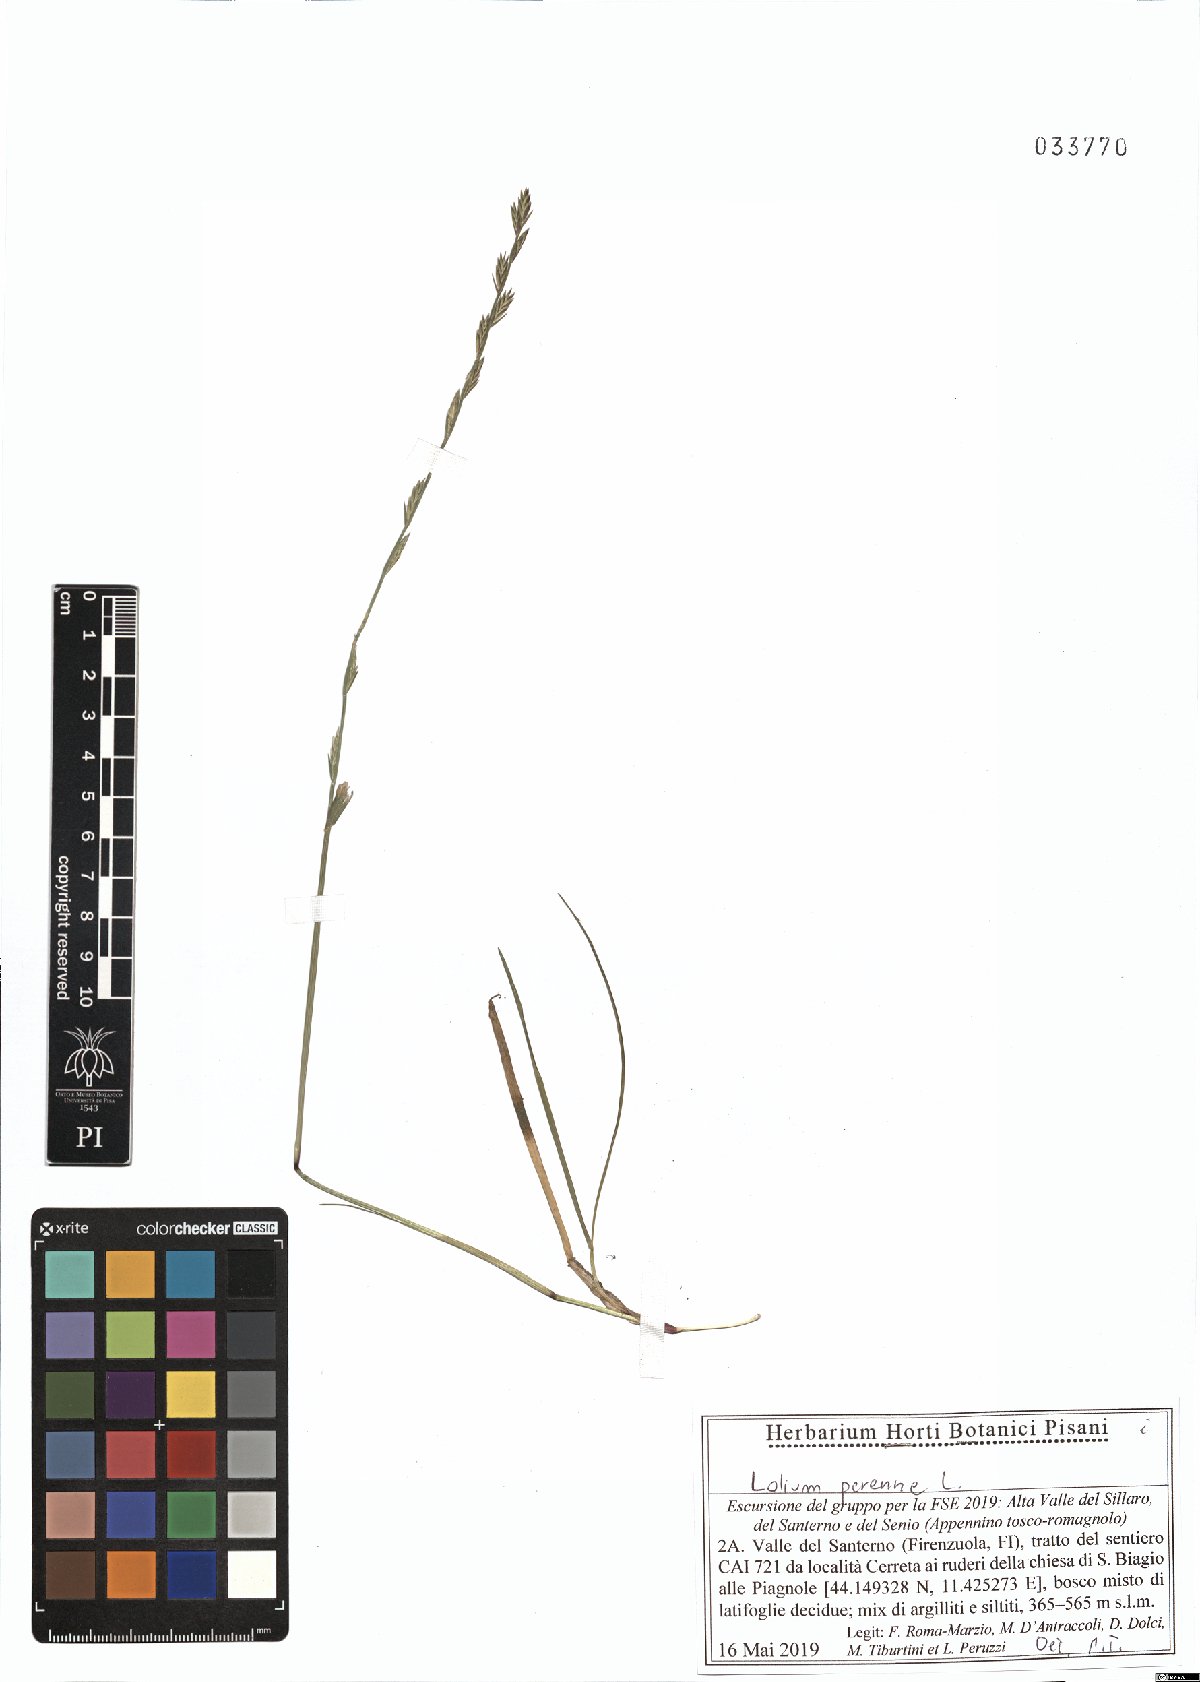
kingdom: Plantae
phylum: Tracheophyta
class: Liliopsida
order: Poales
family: Poaceae
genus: Lolium
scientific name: Lolium perenne
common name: Perennial ryegrass
